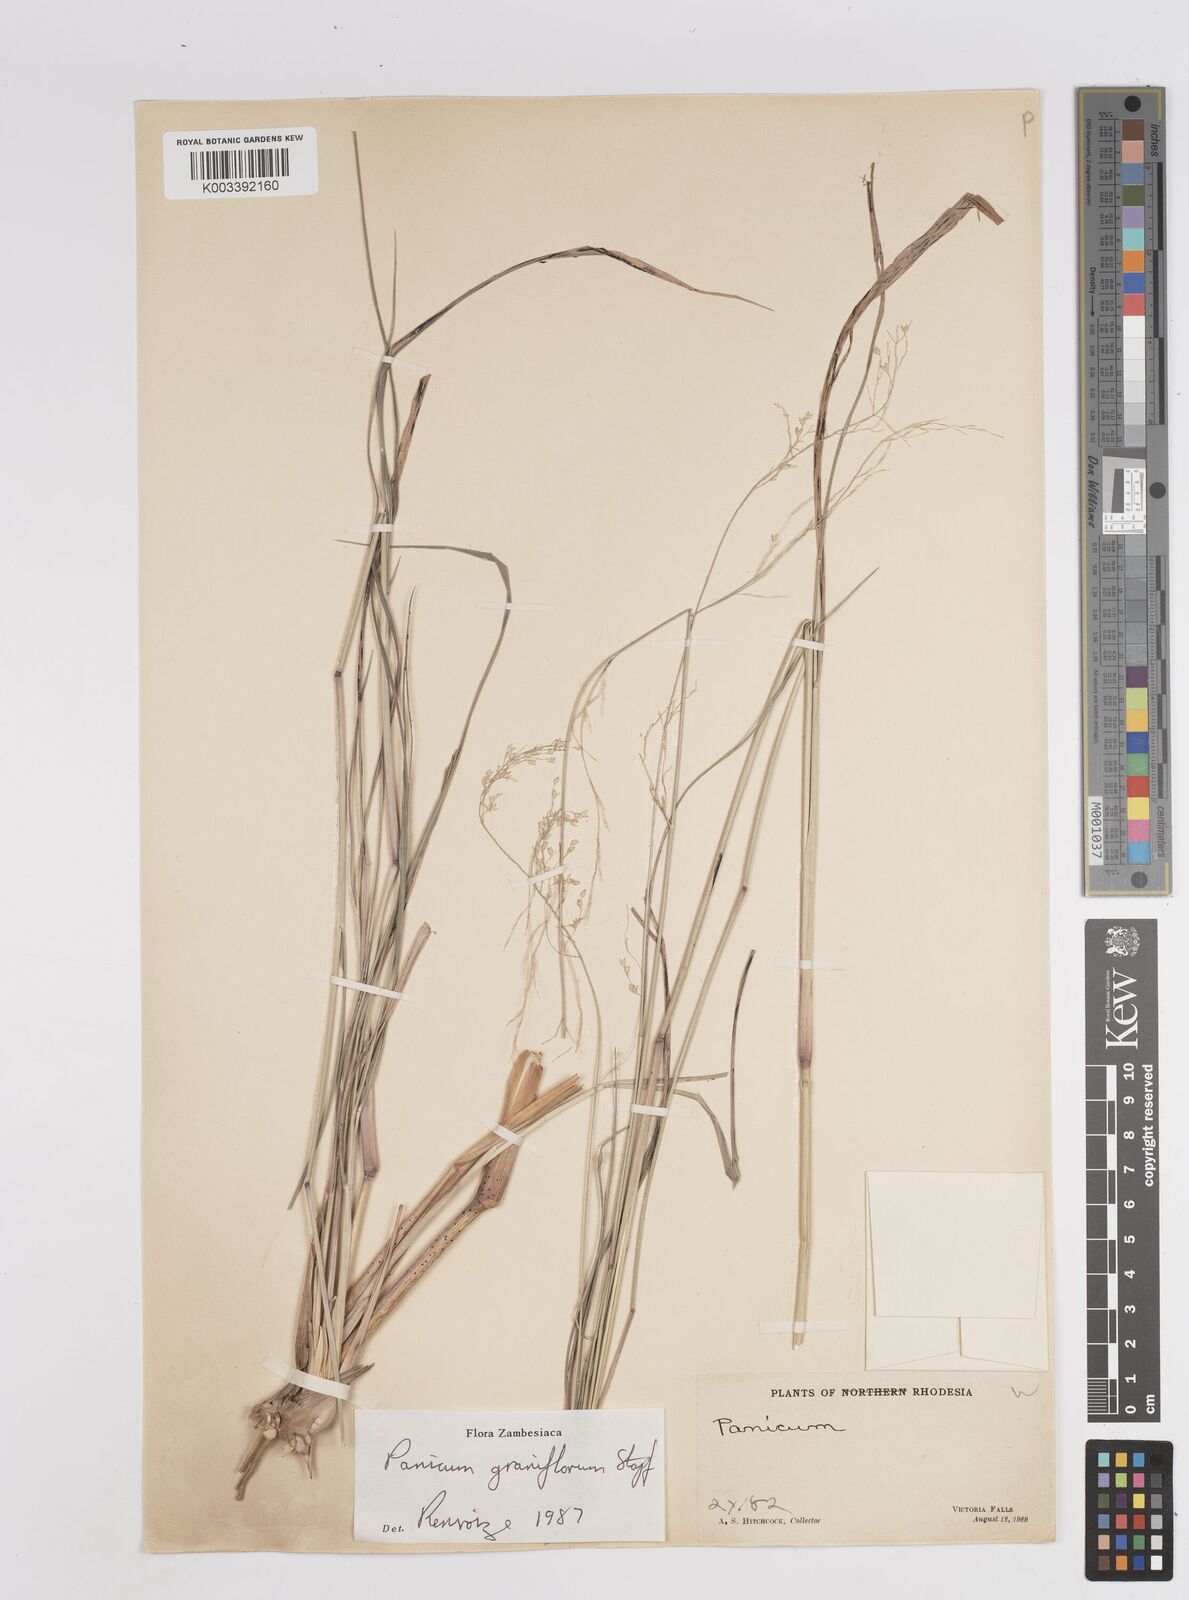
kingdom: Plantae
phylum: Tracheophyta
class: Liliopsida
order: Poales
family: Poaceae
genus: Panicum
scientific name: Panicum graniflorum
